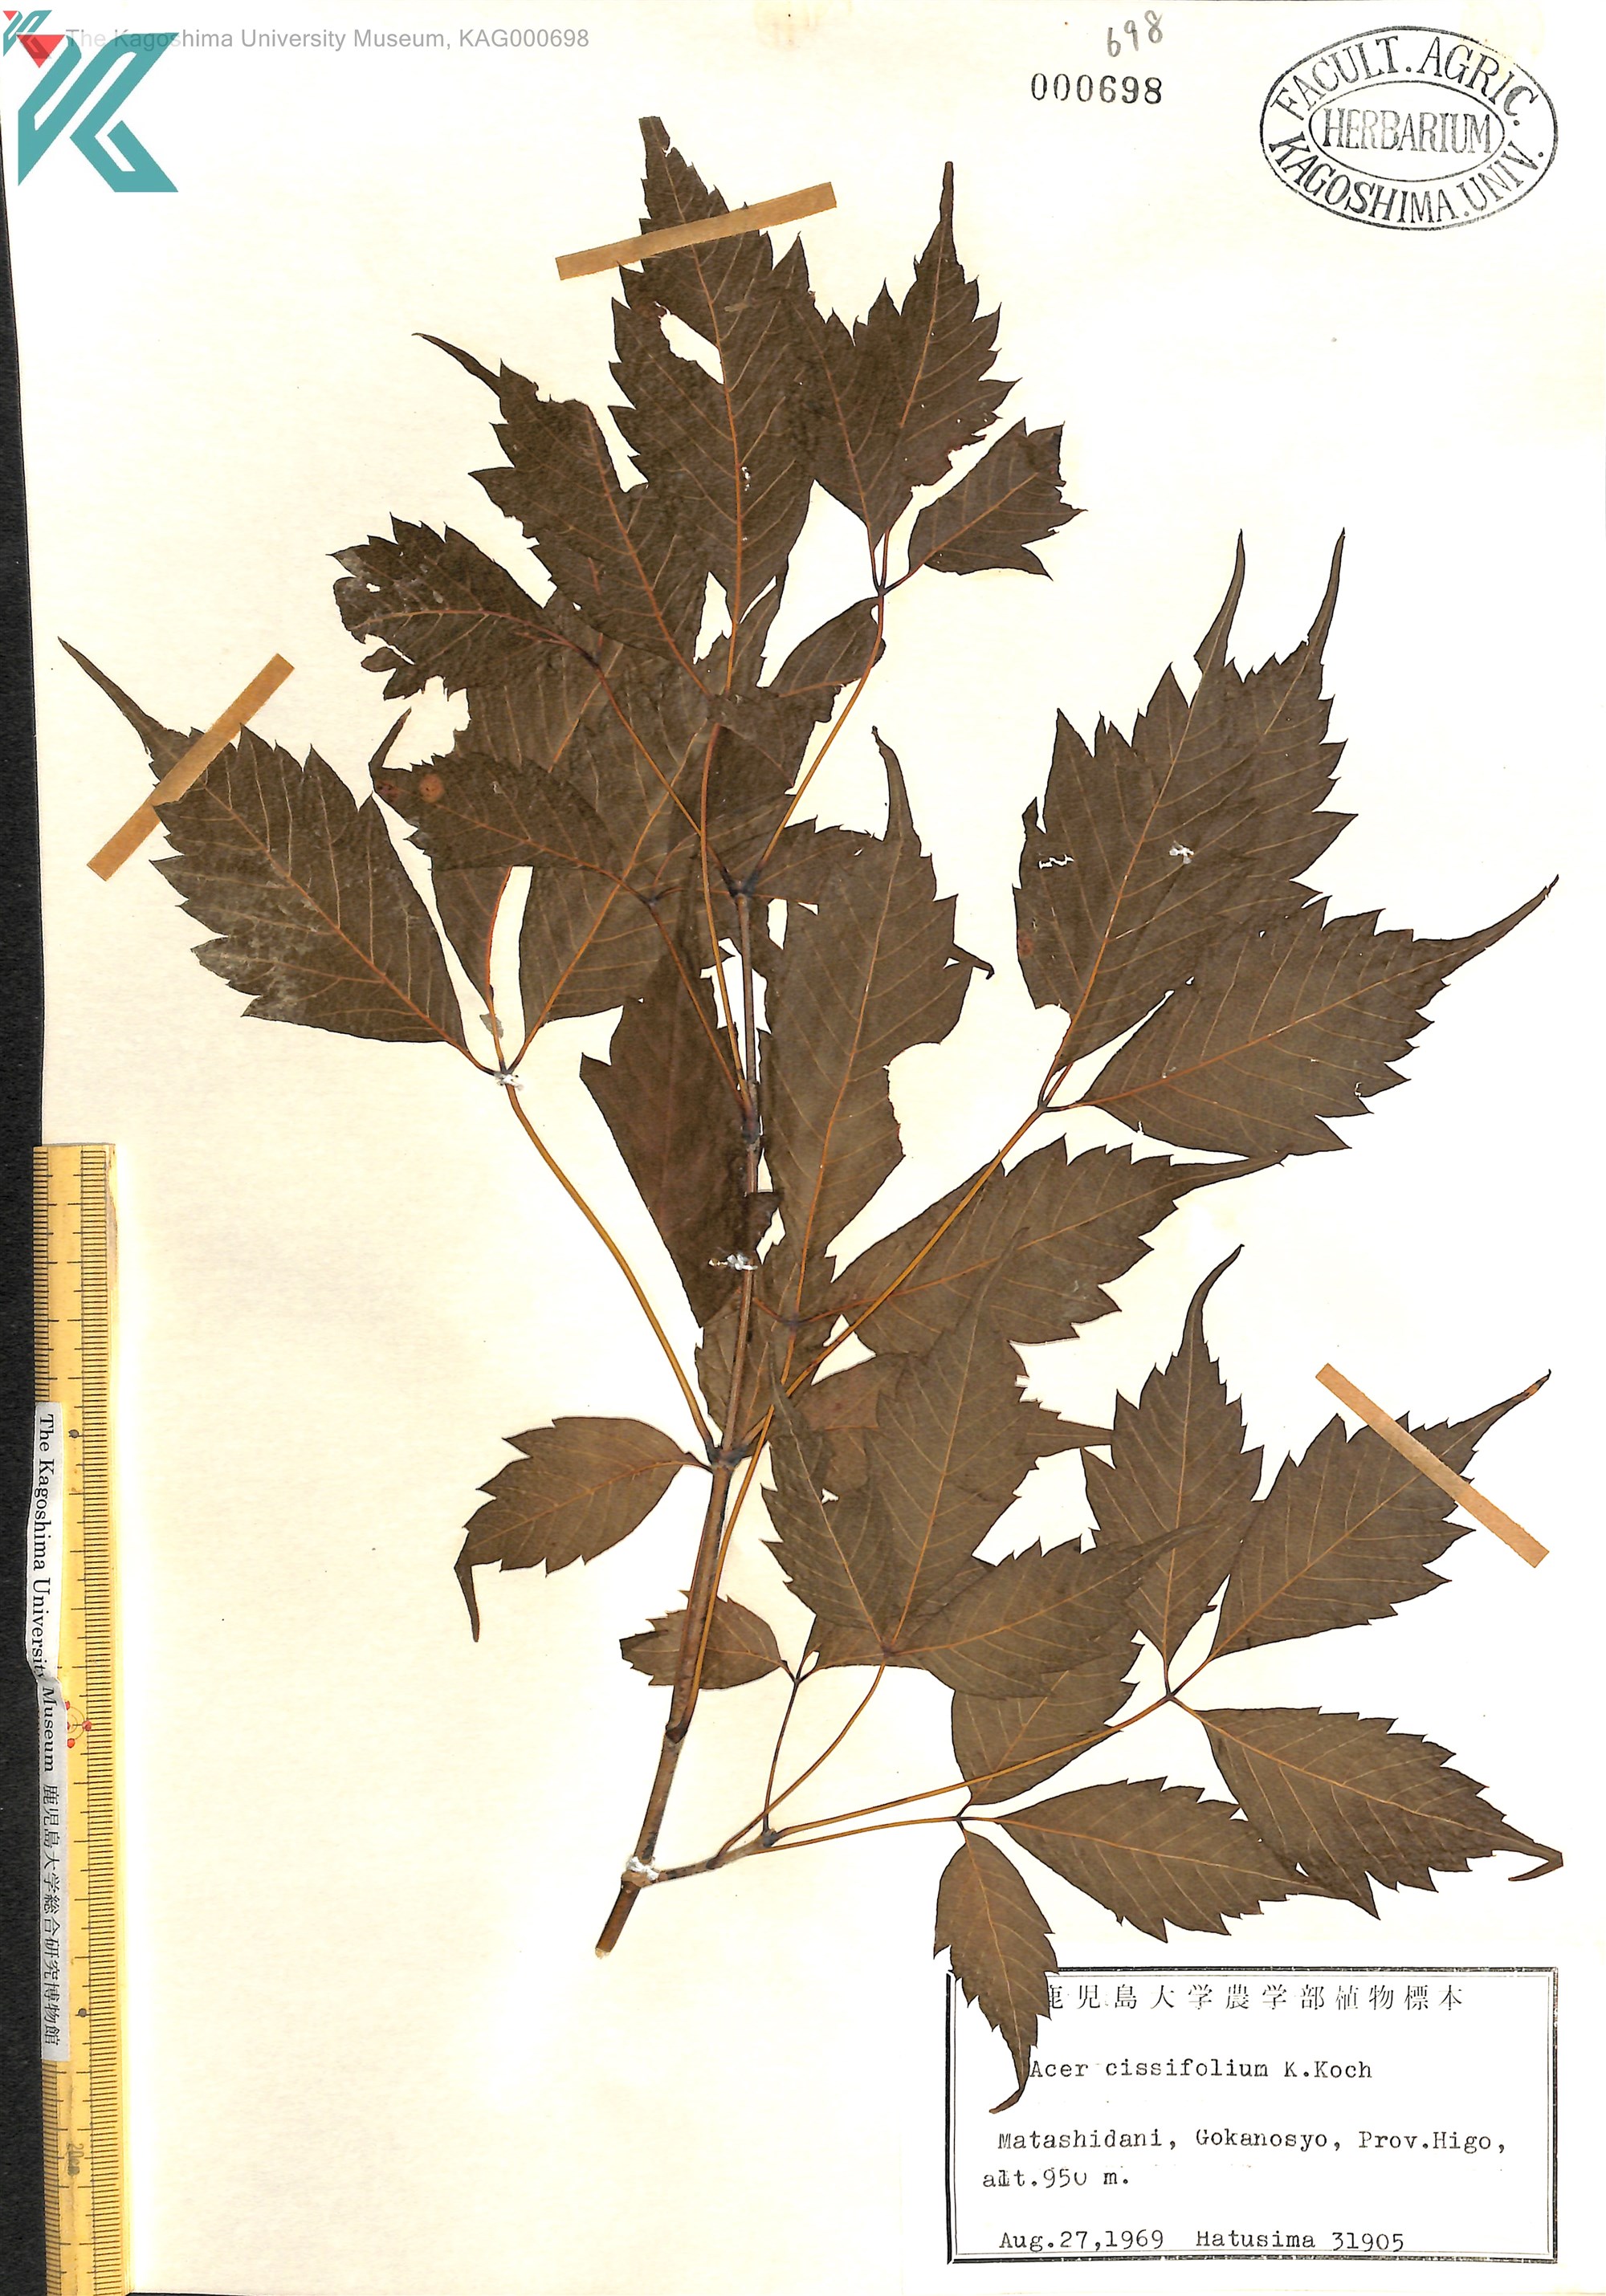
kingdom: Plantae
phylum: Tracheophyta
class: Magnoliopsida
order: Sapindales
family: Sapindaceae
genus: Acer
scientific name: Acer cissifolium
